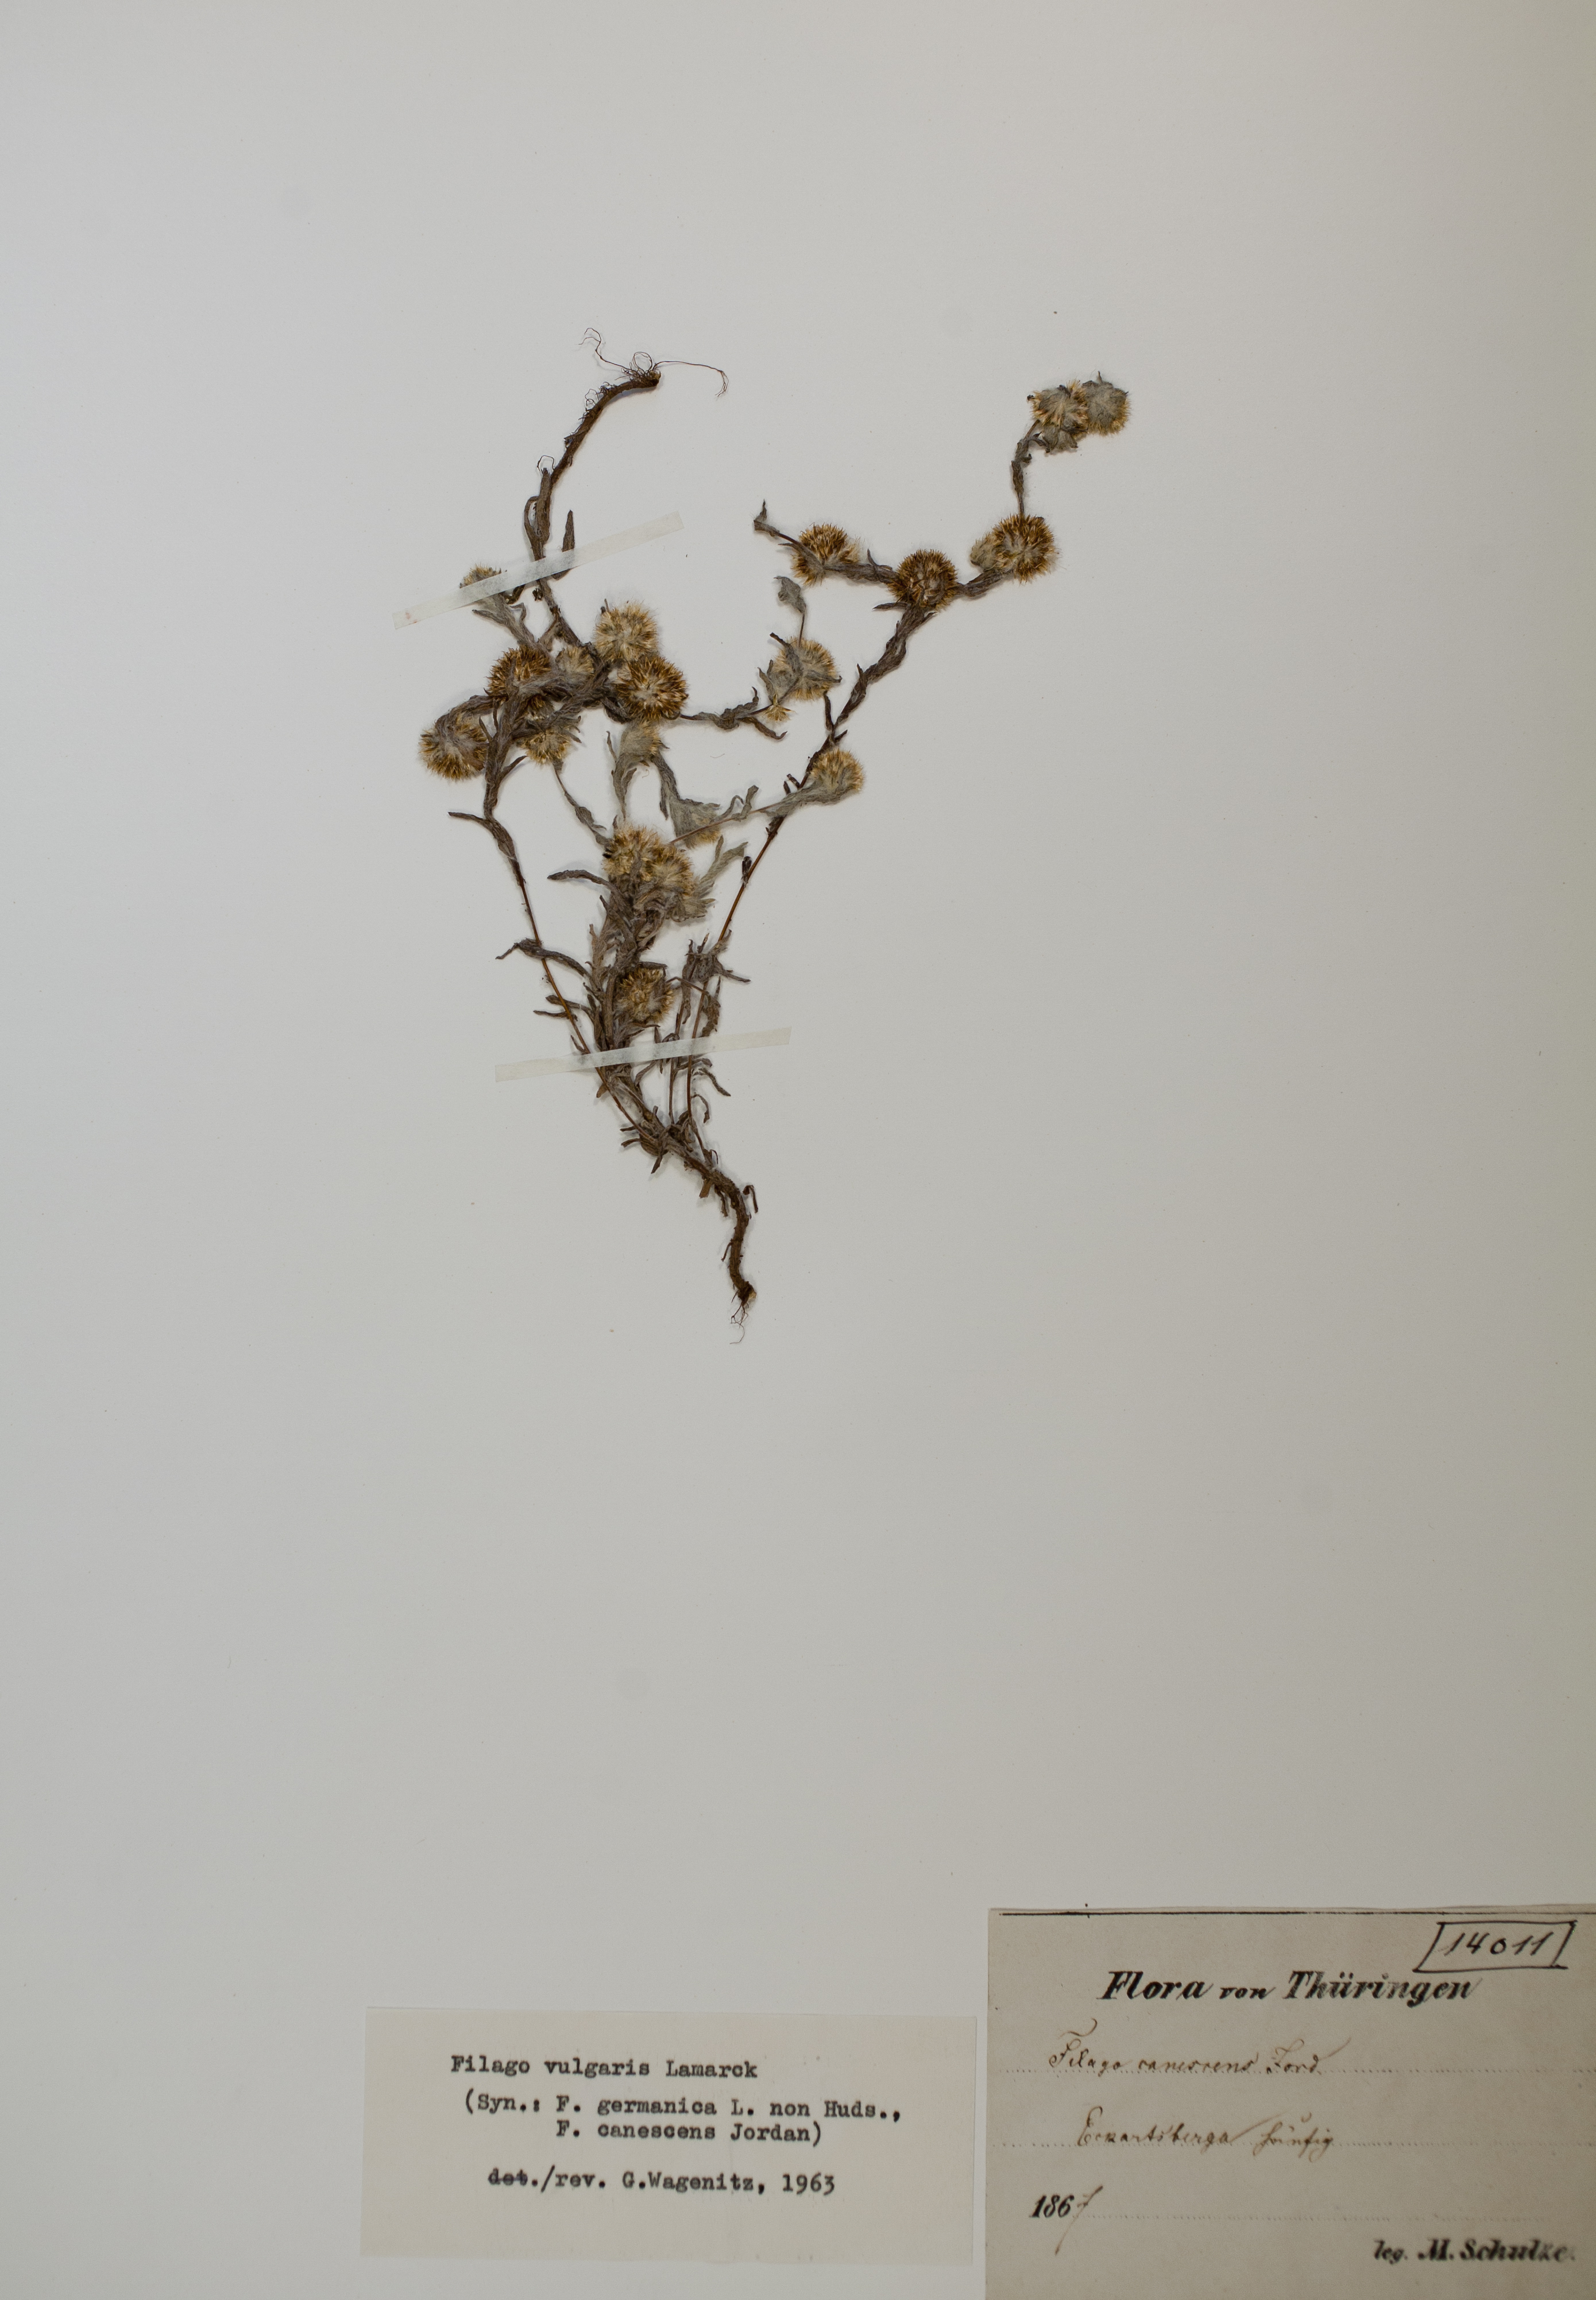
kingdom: Plantae
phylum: Tracheophyta
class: Magnoliopsida
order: Asterales
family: Asteraceae
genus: Filago
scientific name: Filago germanica
